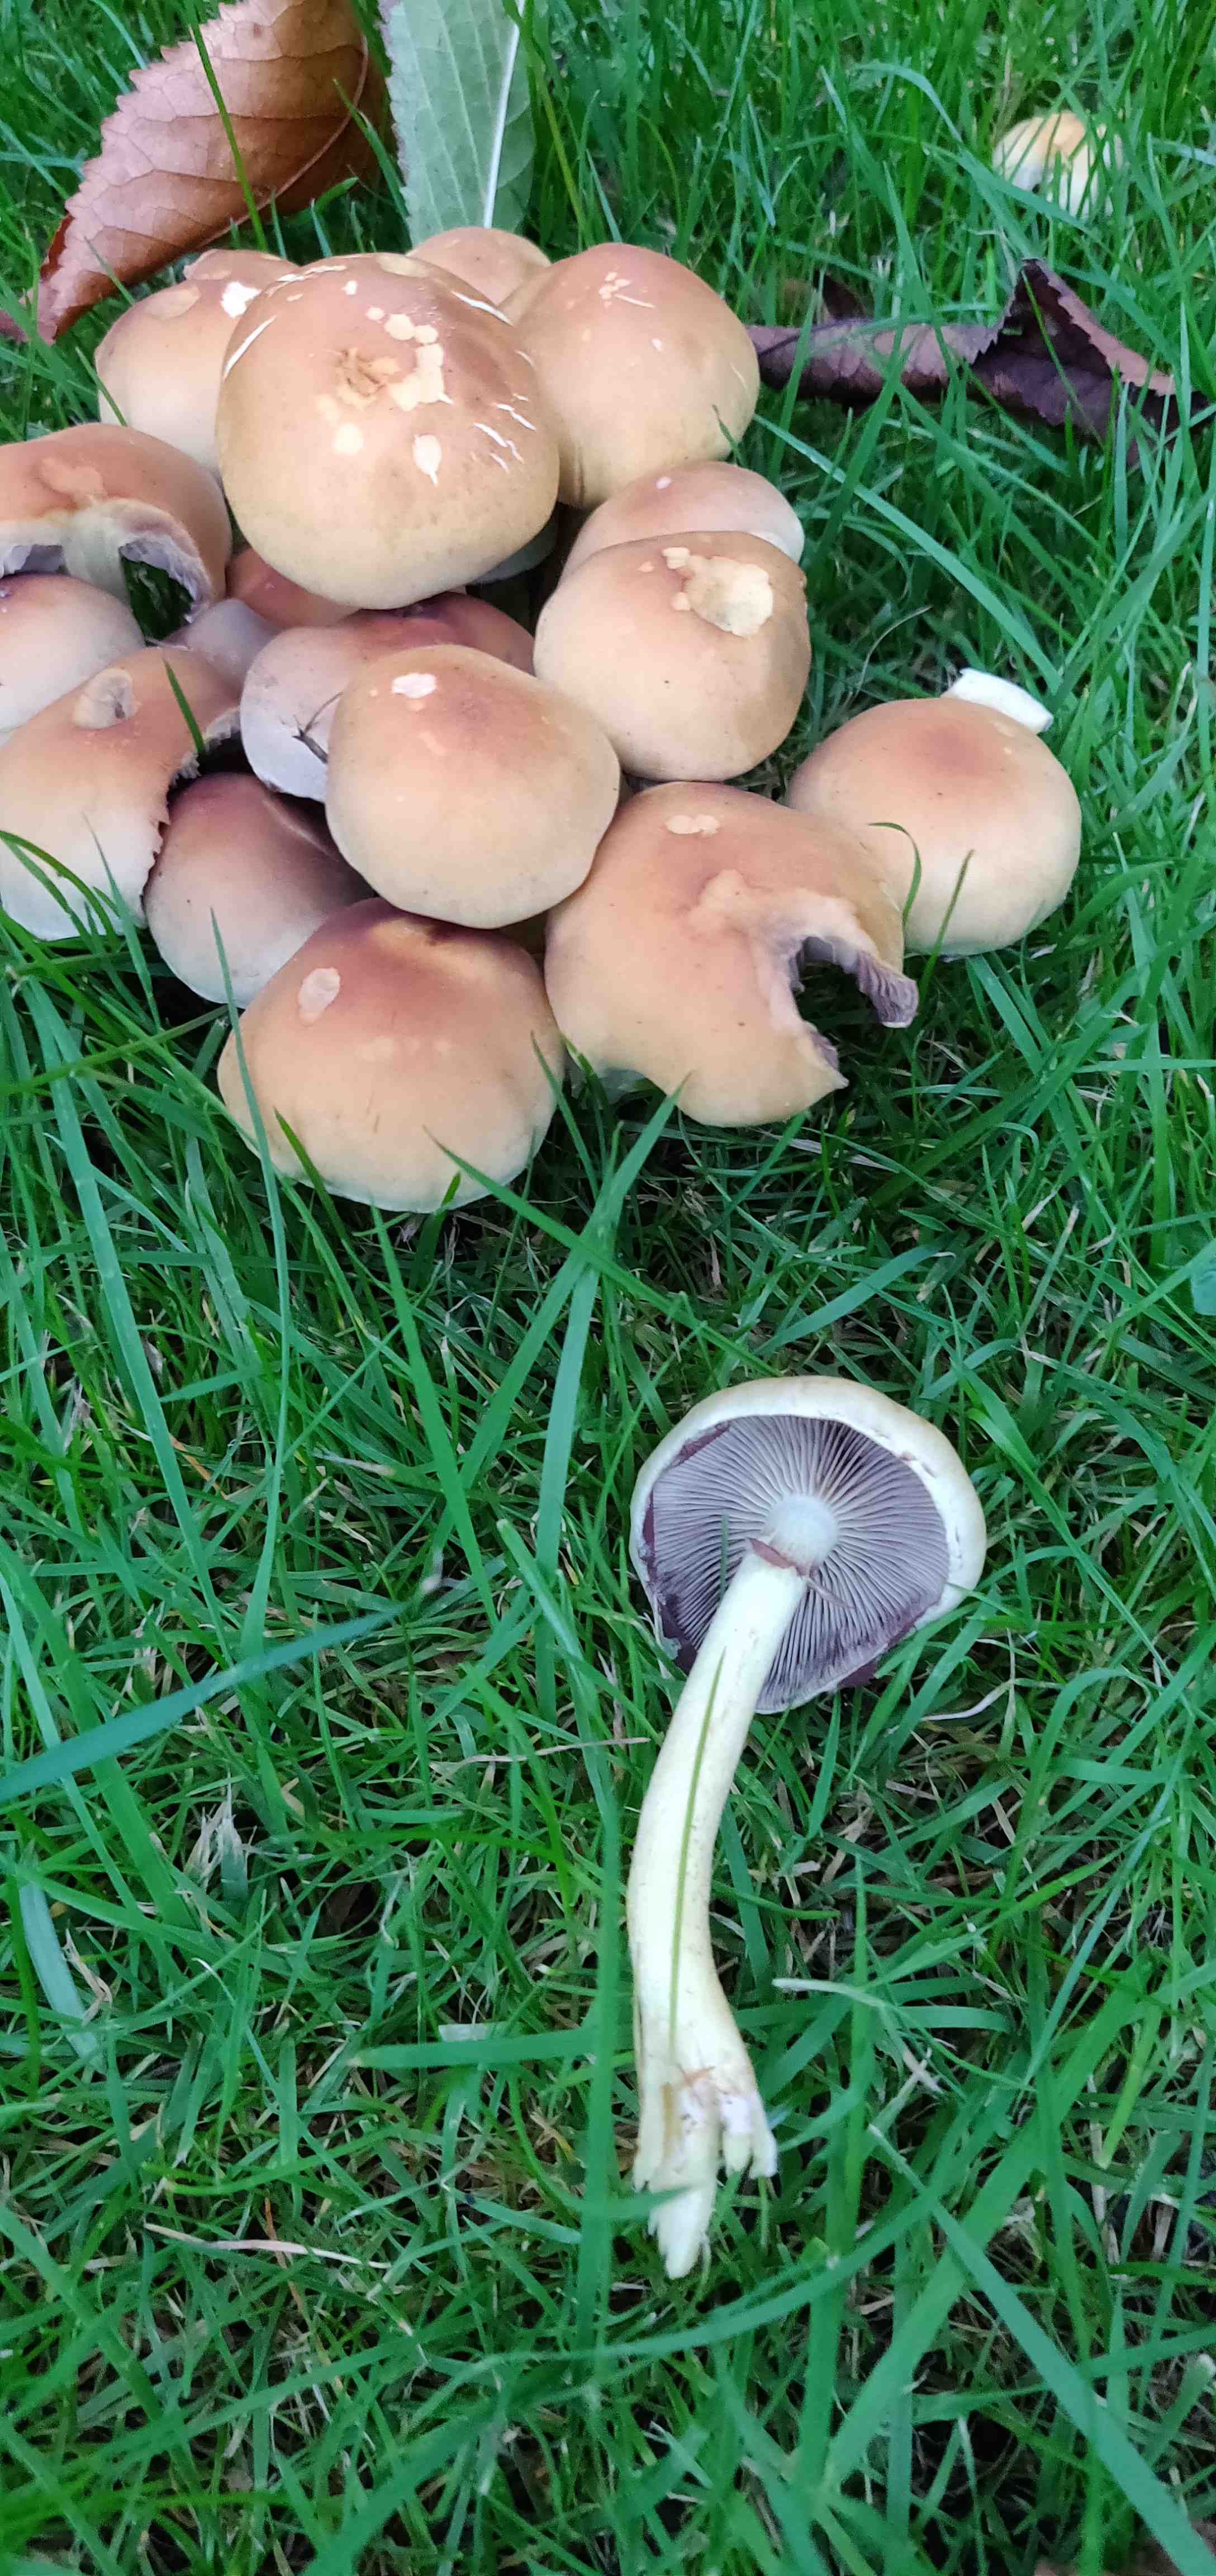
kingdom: Fungi
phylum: Basidiomycota
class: Agaricomycetes
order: Agaricales
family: Strophariaceae
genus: Hypholoma
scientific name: Hypholoma lateritium
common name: teglrød svovlhat
